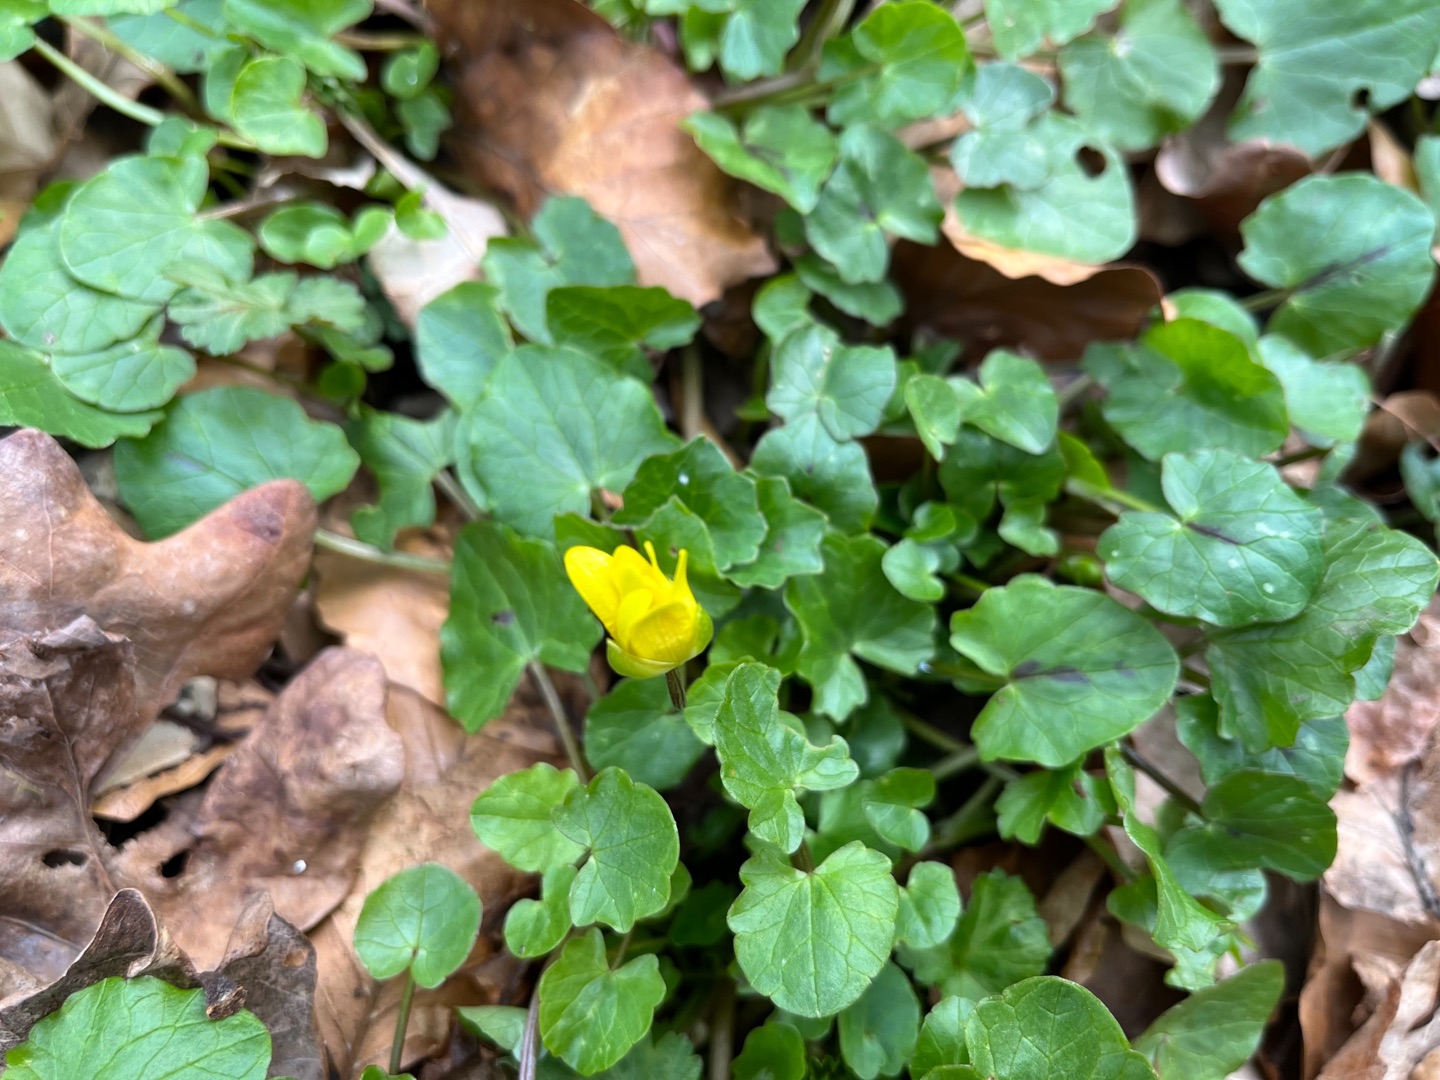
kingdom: Plantae
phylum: Tracheophyta
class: Magnoliopsida
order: Ranunculales
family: Ranunculaceae
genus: Ficaria
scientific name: Ficaria verna
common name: Vorterod
